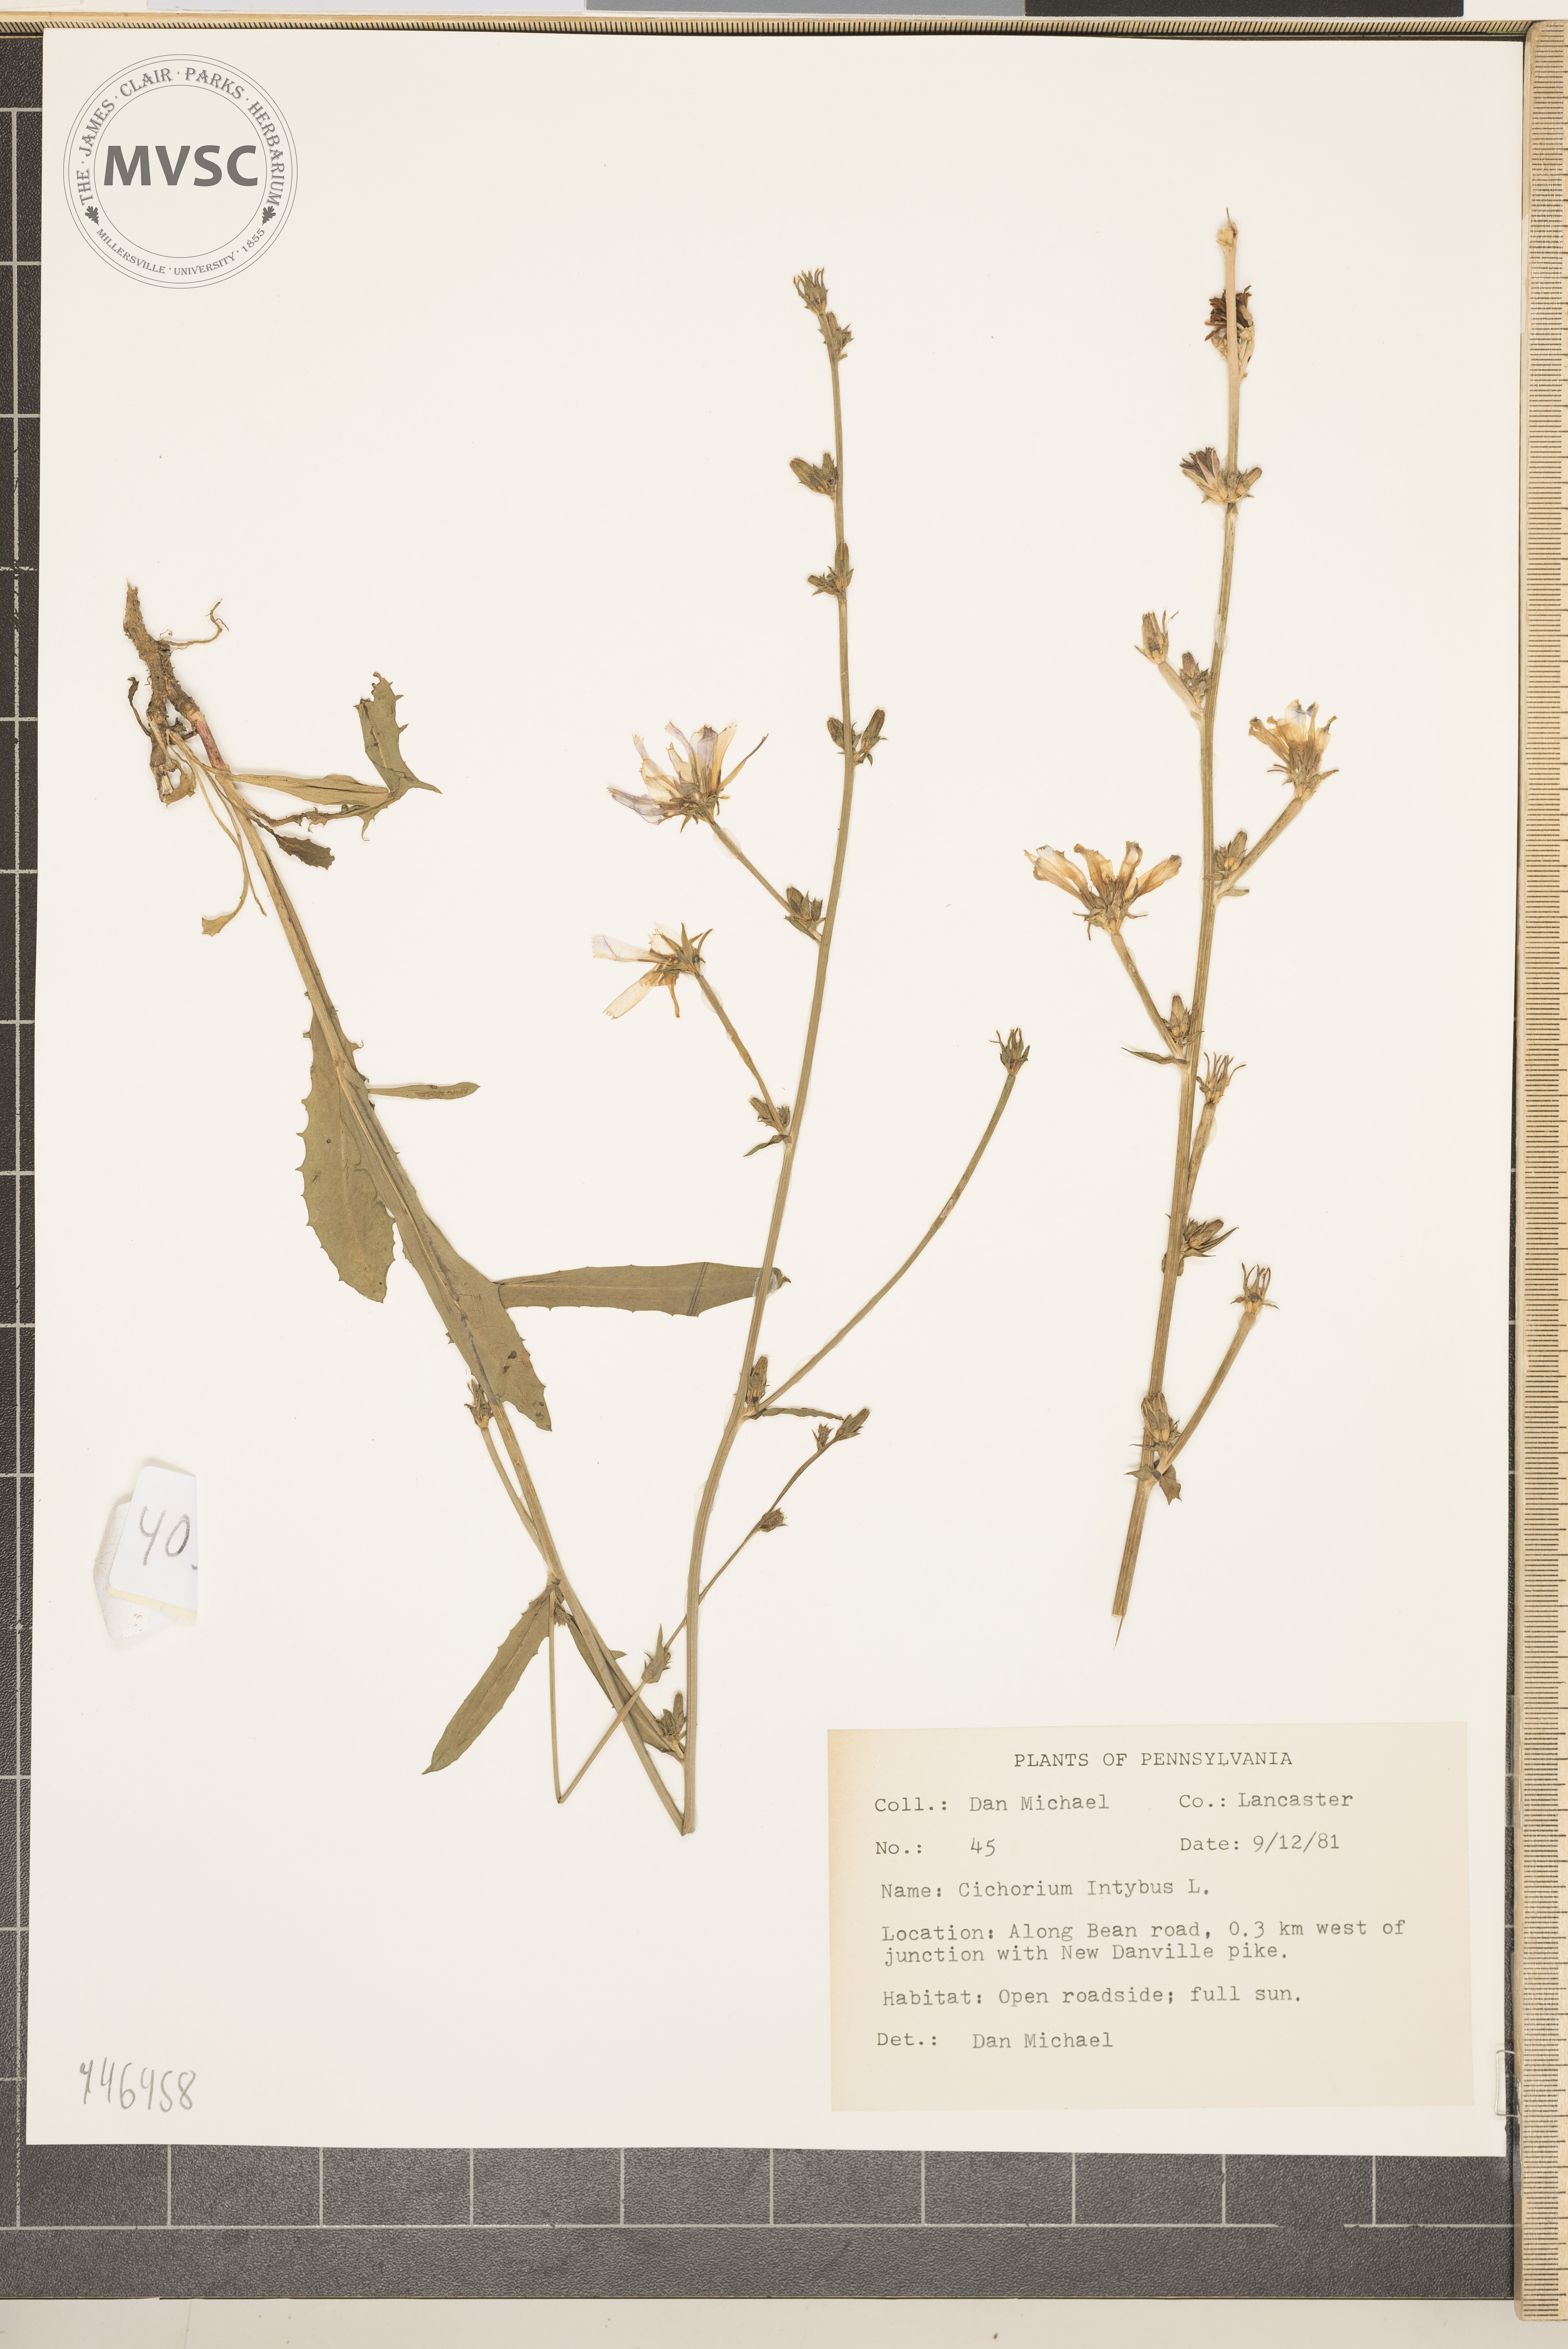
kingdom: Plantae
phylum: Tracheophyta
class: Magnoliopsida
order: Asterales
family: Asteraceae
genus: Cichorium
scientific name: Cichorium intybus
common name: Chicory
